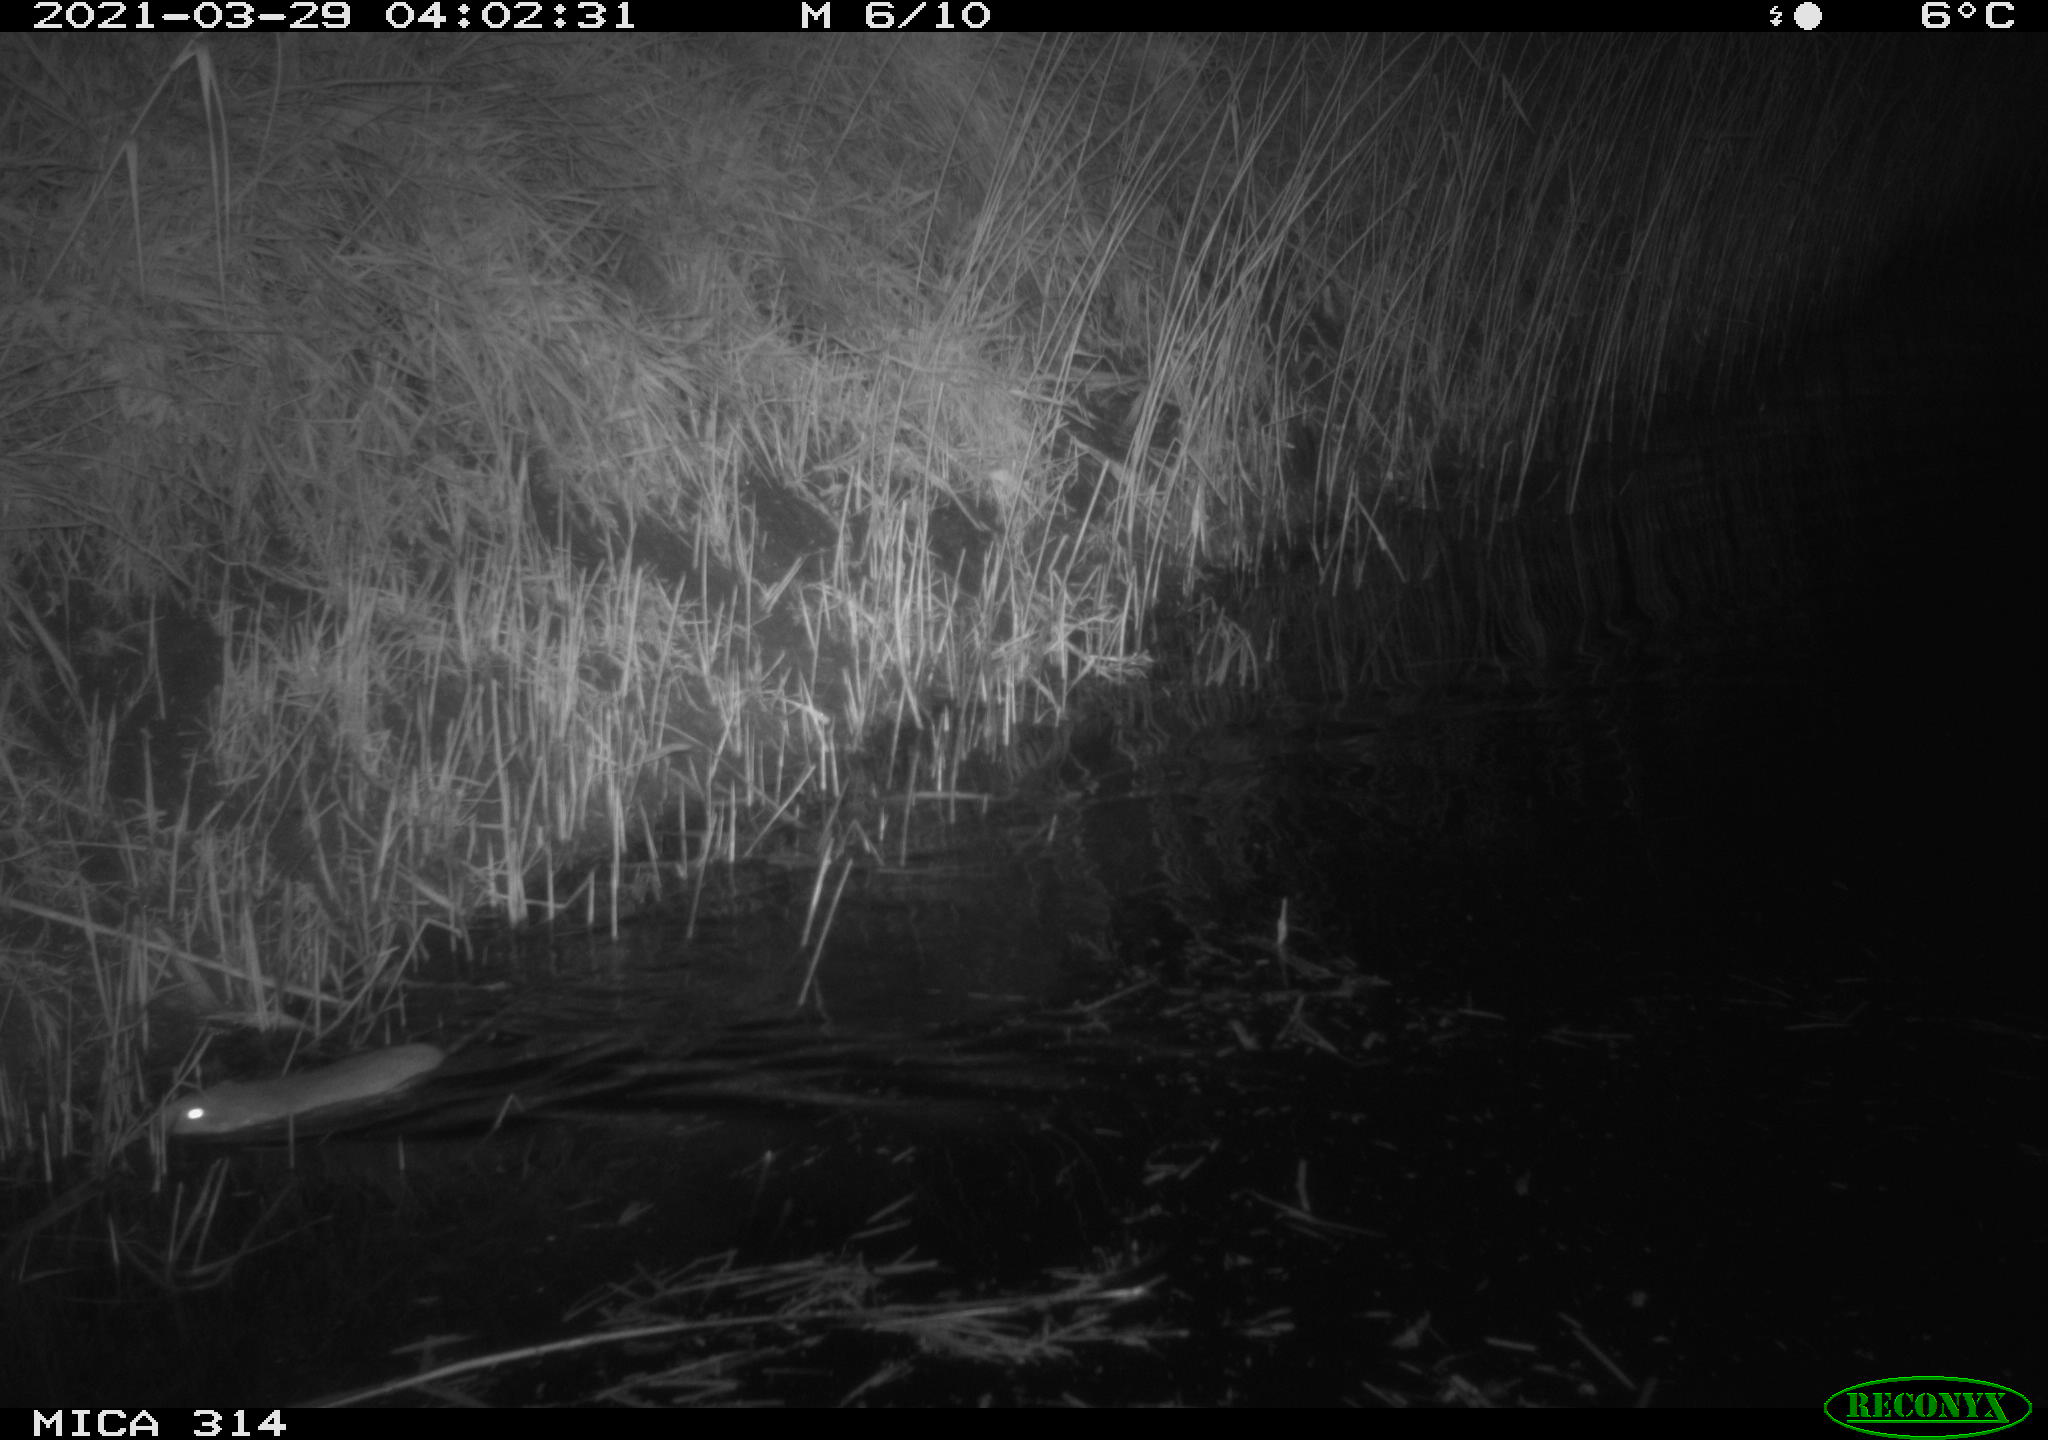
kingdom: Animalia
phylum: Chordata
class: Mammalia
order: Rodentia
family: Muridae
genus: Rattus
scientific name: Rattus norvegicus
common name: Brown rat
